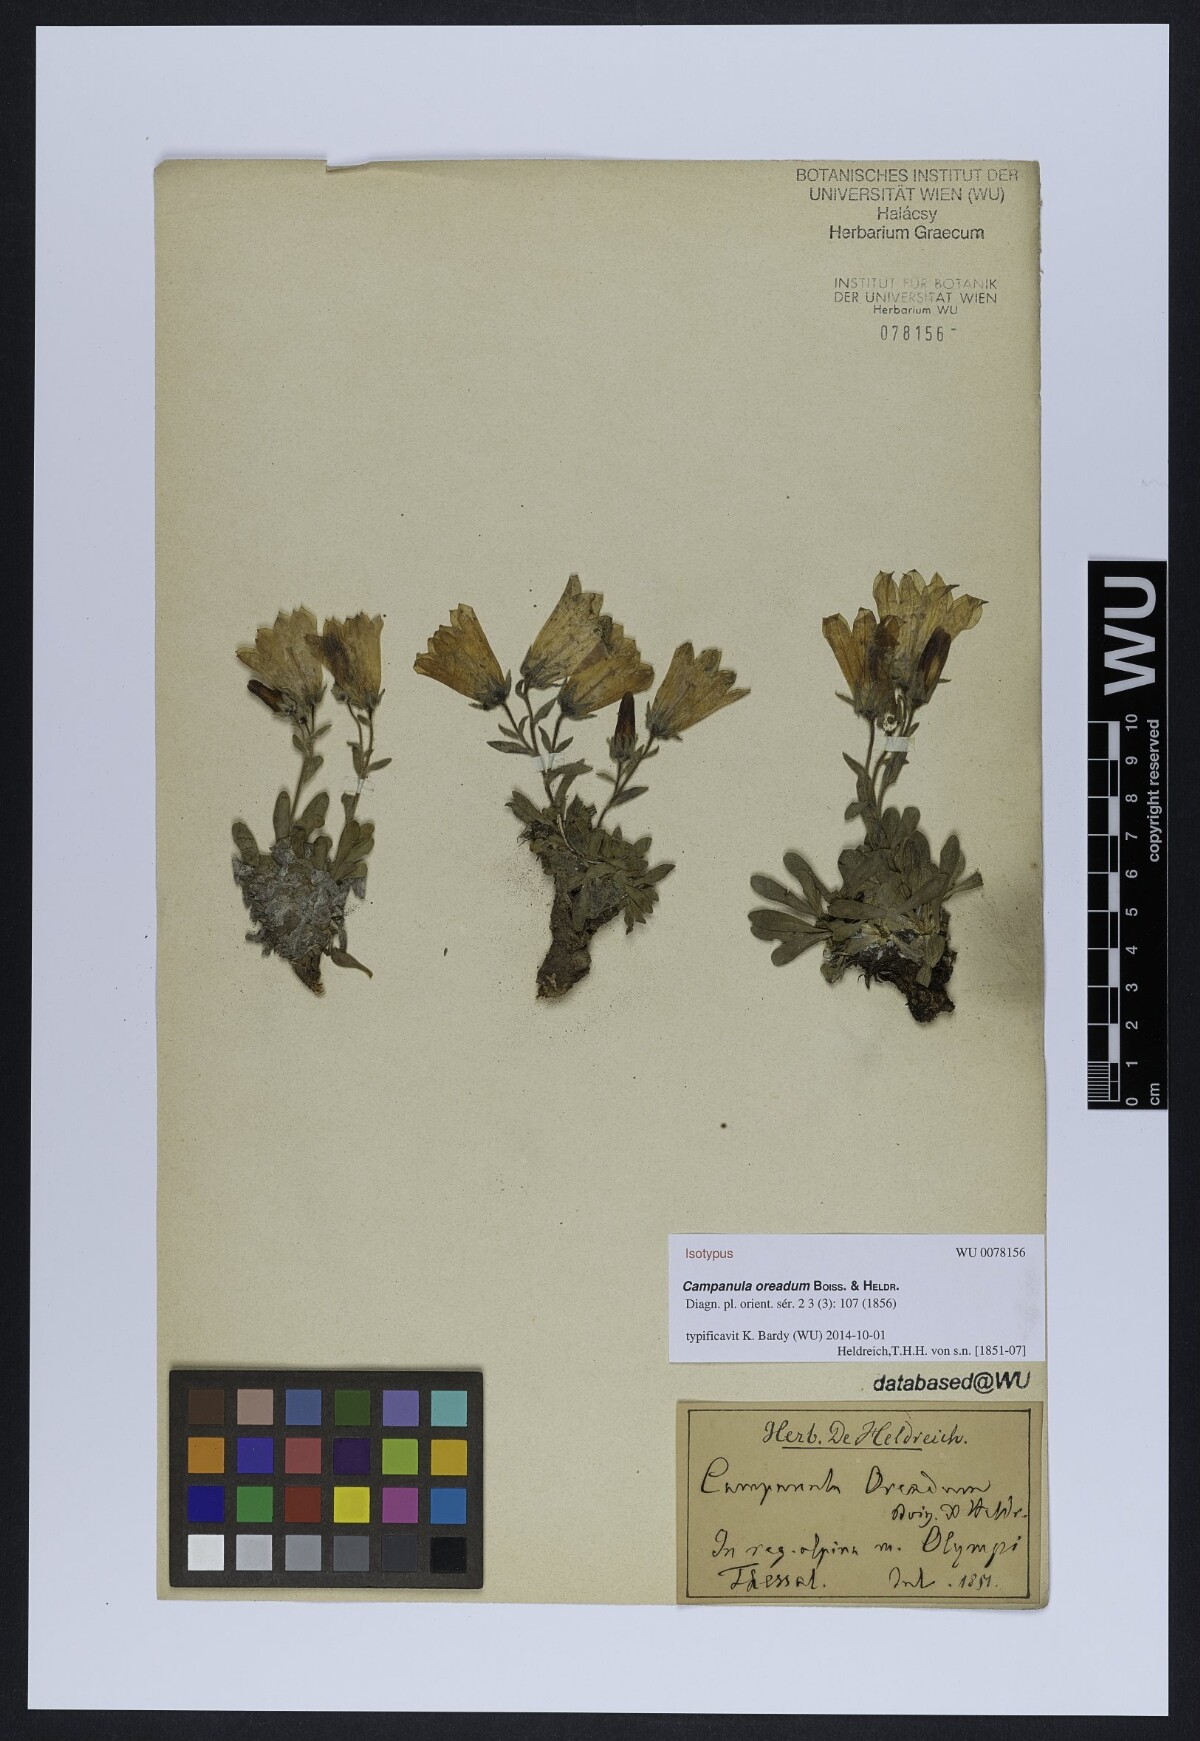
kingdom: Plantae
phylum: Tracheophyta
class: Magnoliopsida
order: Asterales
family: Campanulaceae
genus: Campanula
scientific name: Campanula oreadum
